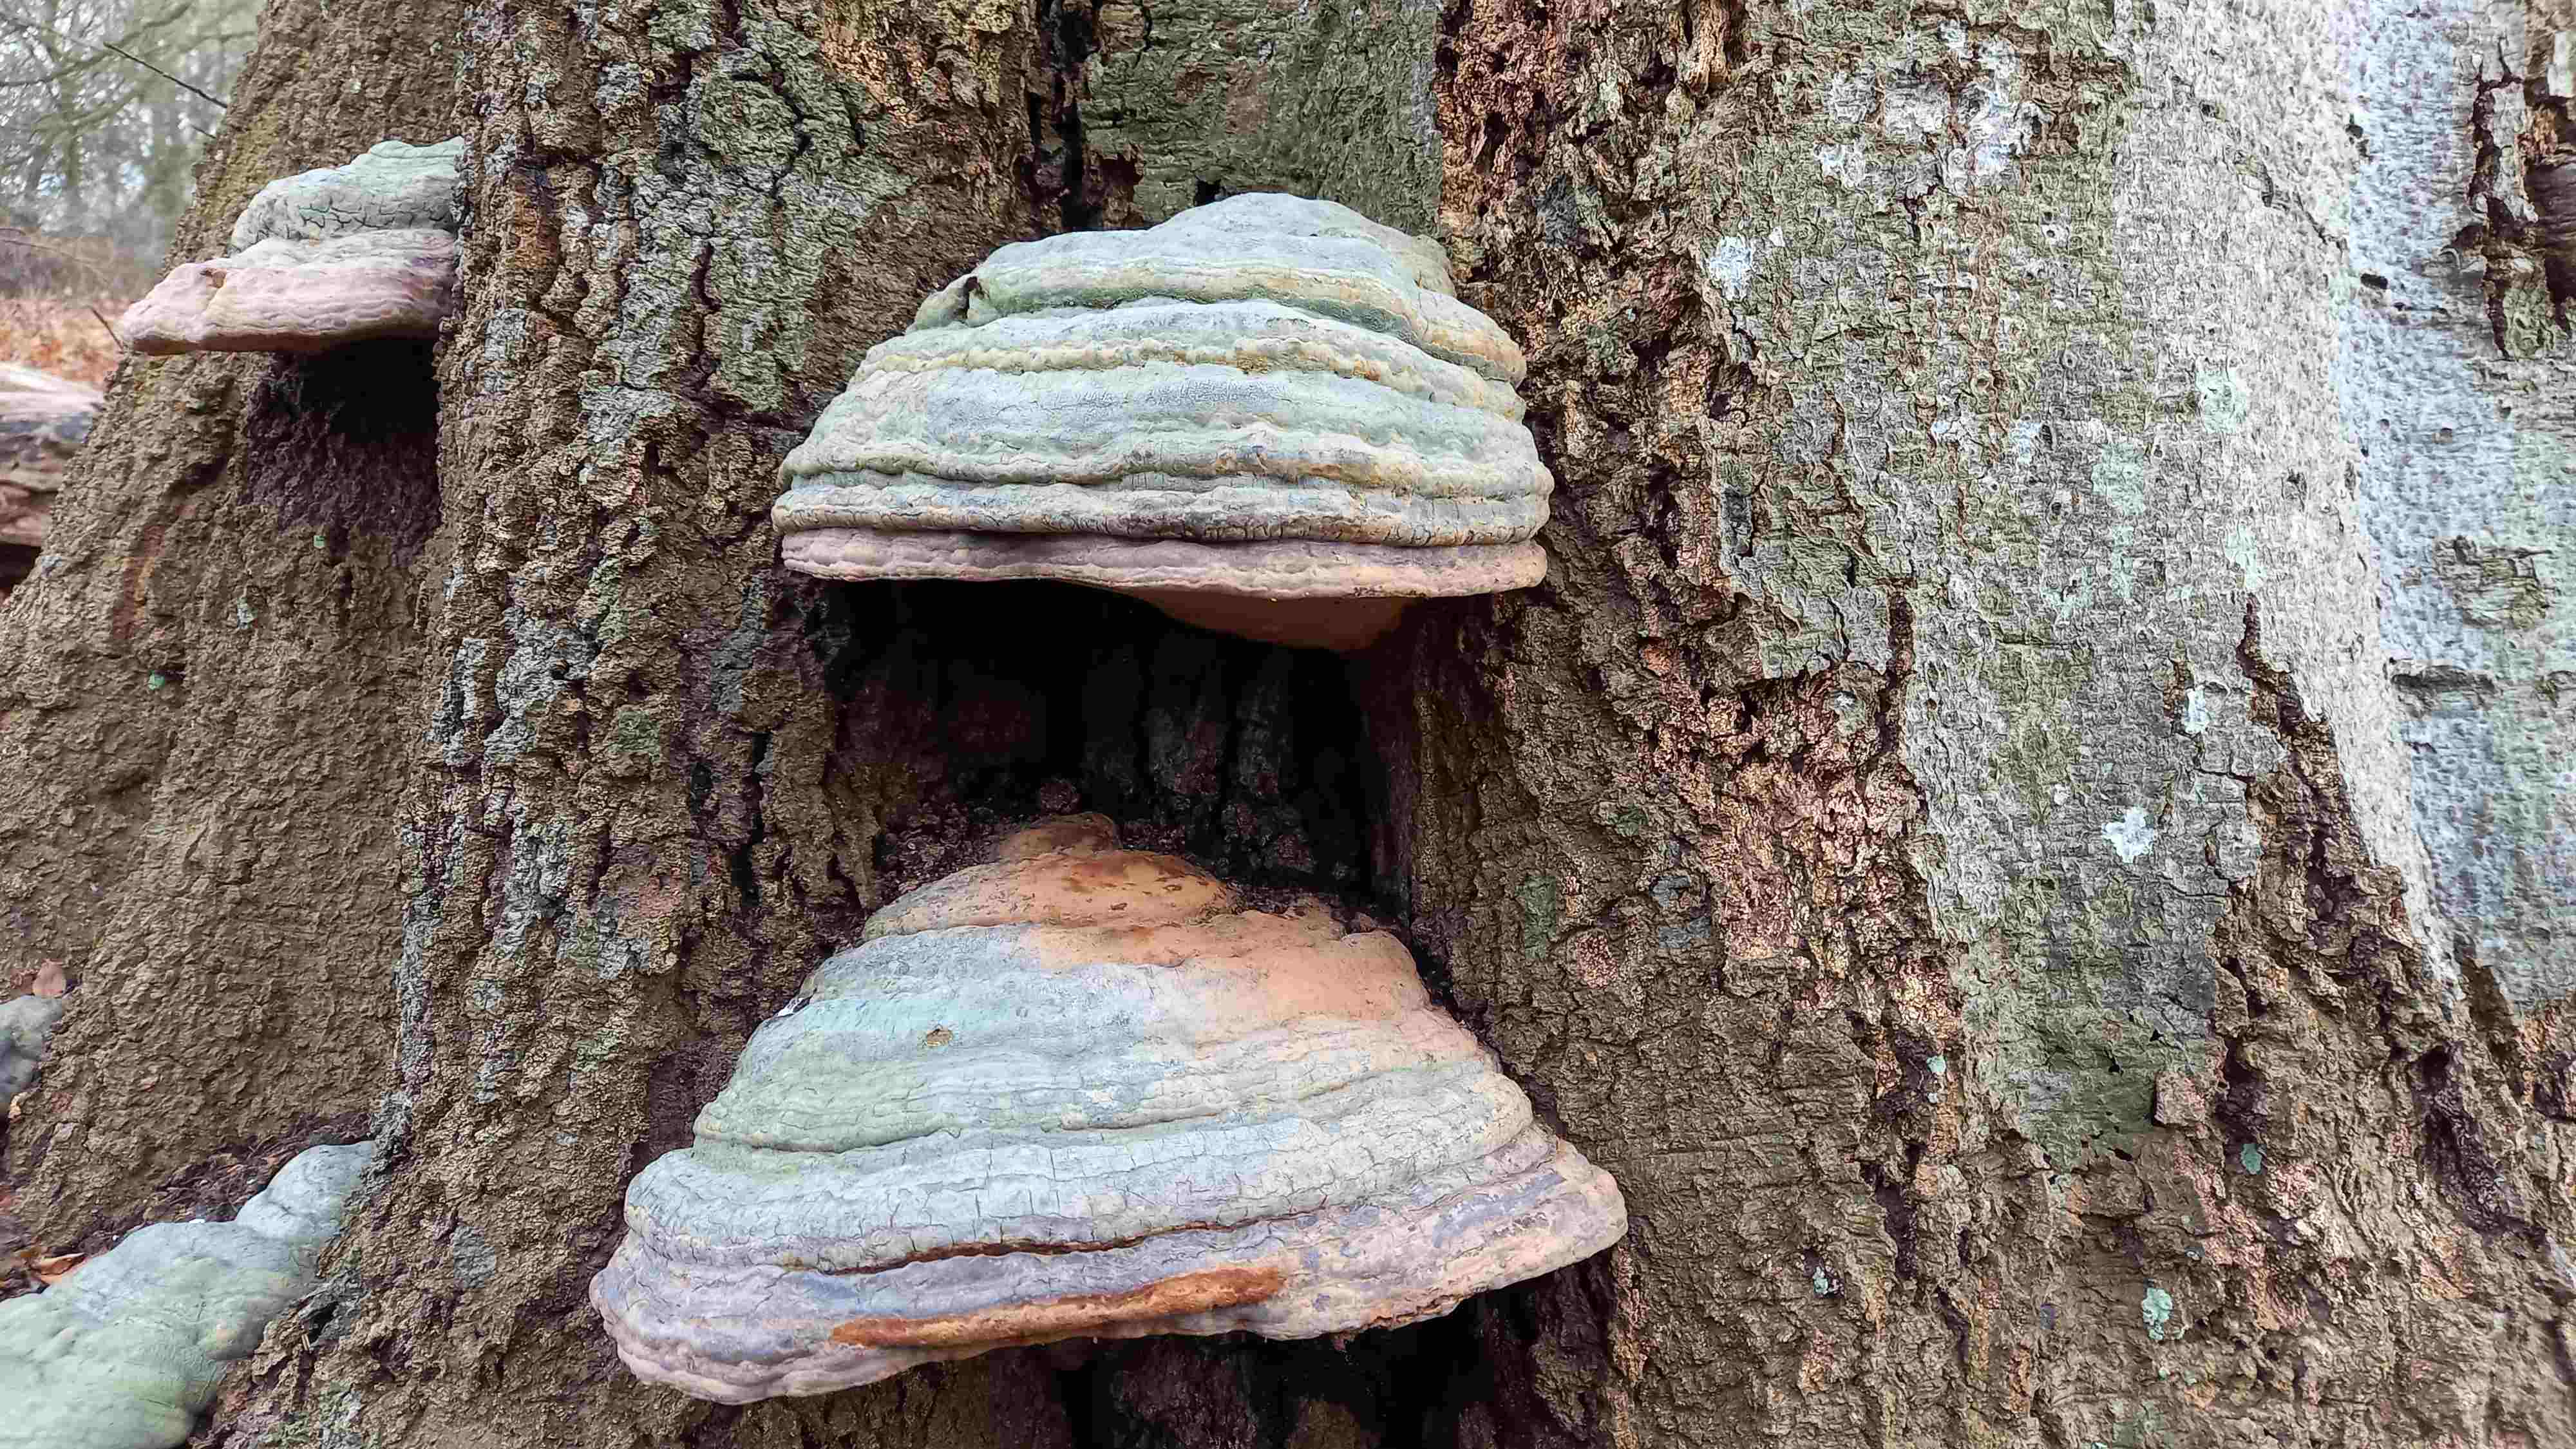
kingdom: Fungi
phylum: Basidiomycota
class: Agaricomycetes
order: Polyporales
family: Polyporaceae
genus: Ganoderma
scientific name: Ganoderma pfeifferi
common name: kobberrød lakporesvamp
